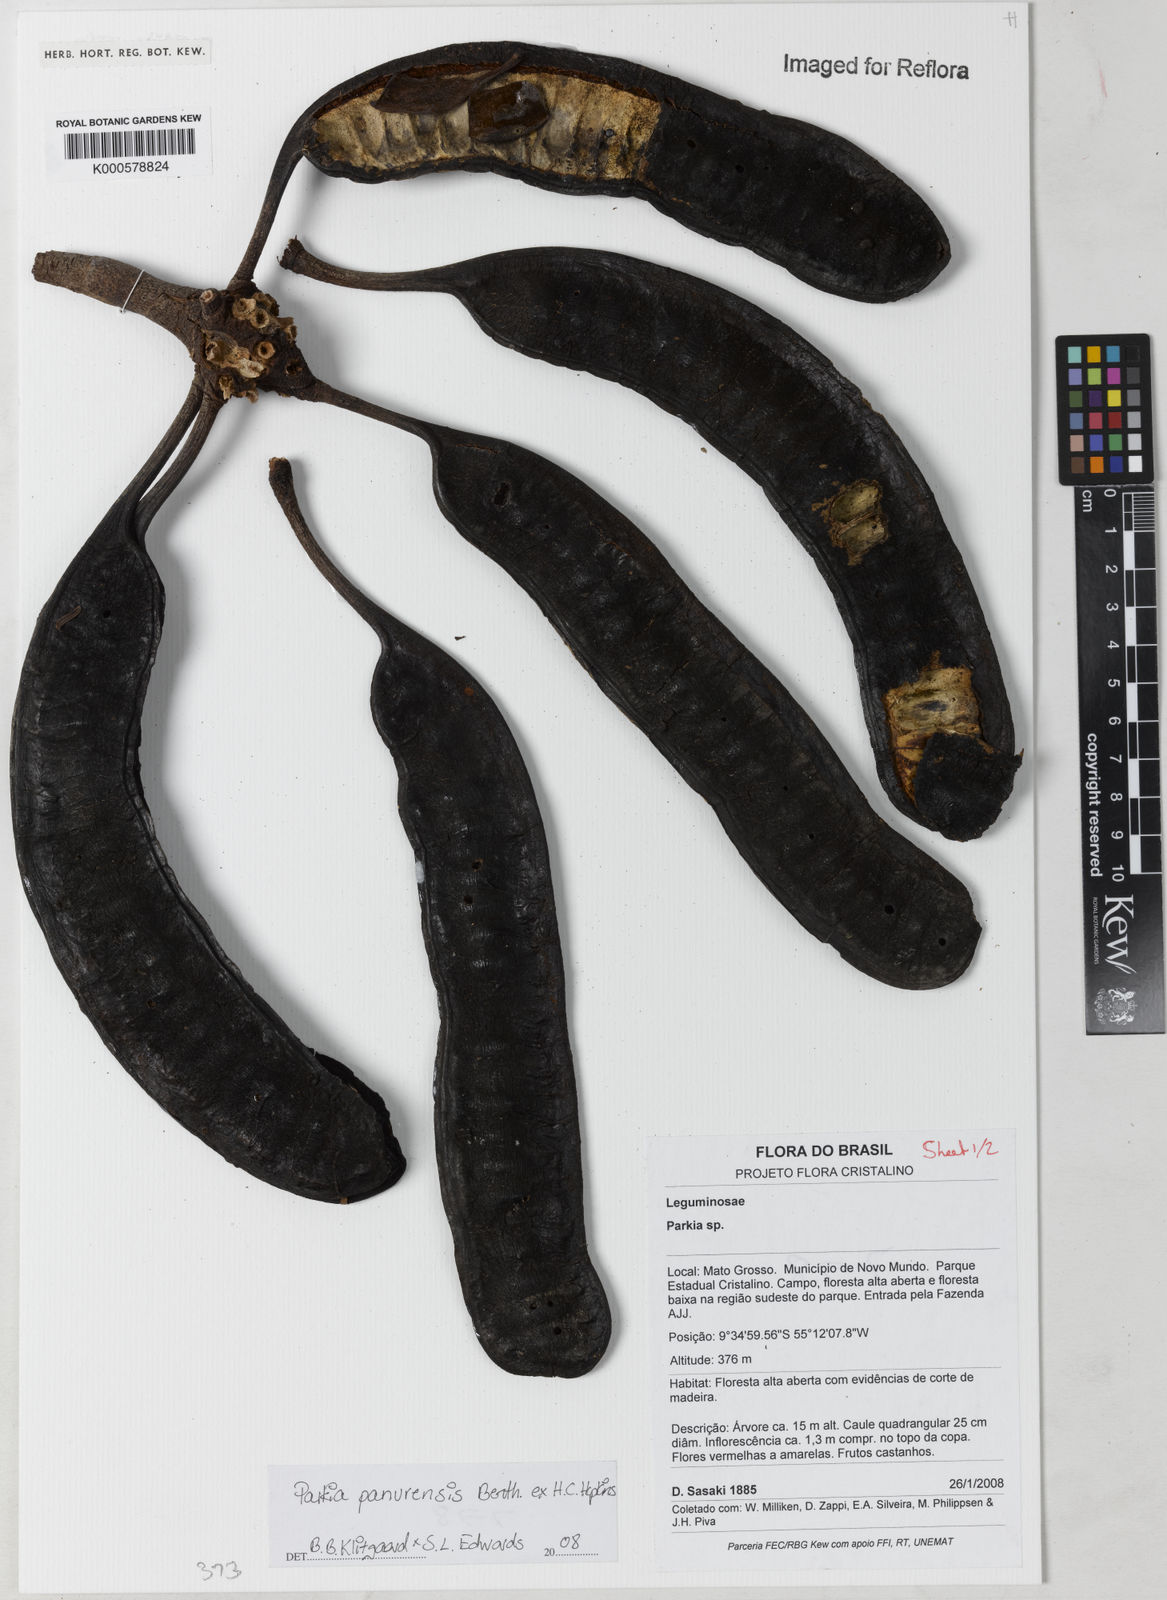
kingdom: Plantae
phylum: Tracheophyta
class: Magnoliopsida
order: Fabales
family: Fabaceae
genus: Parkia
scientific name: Parkia pectinata
